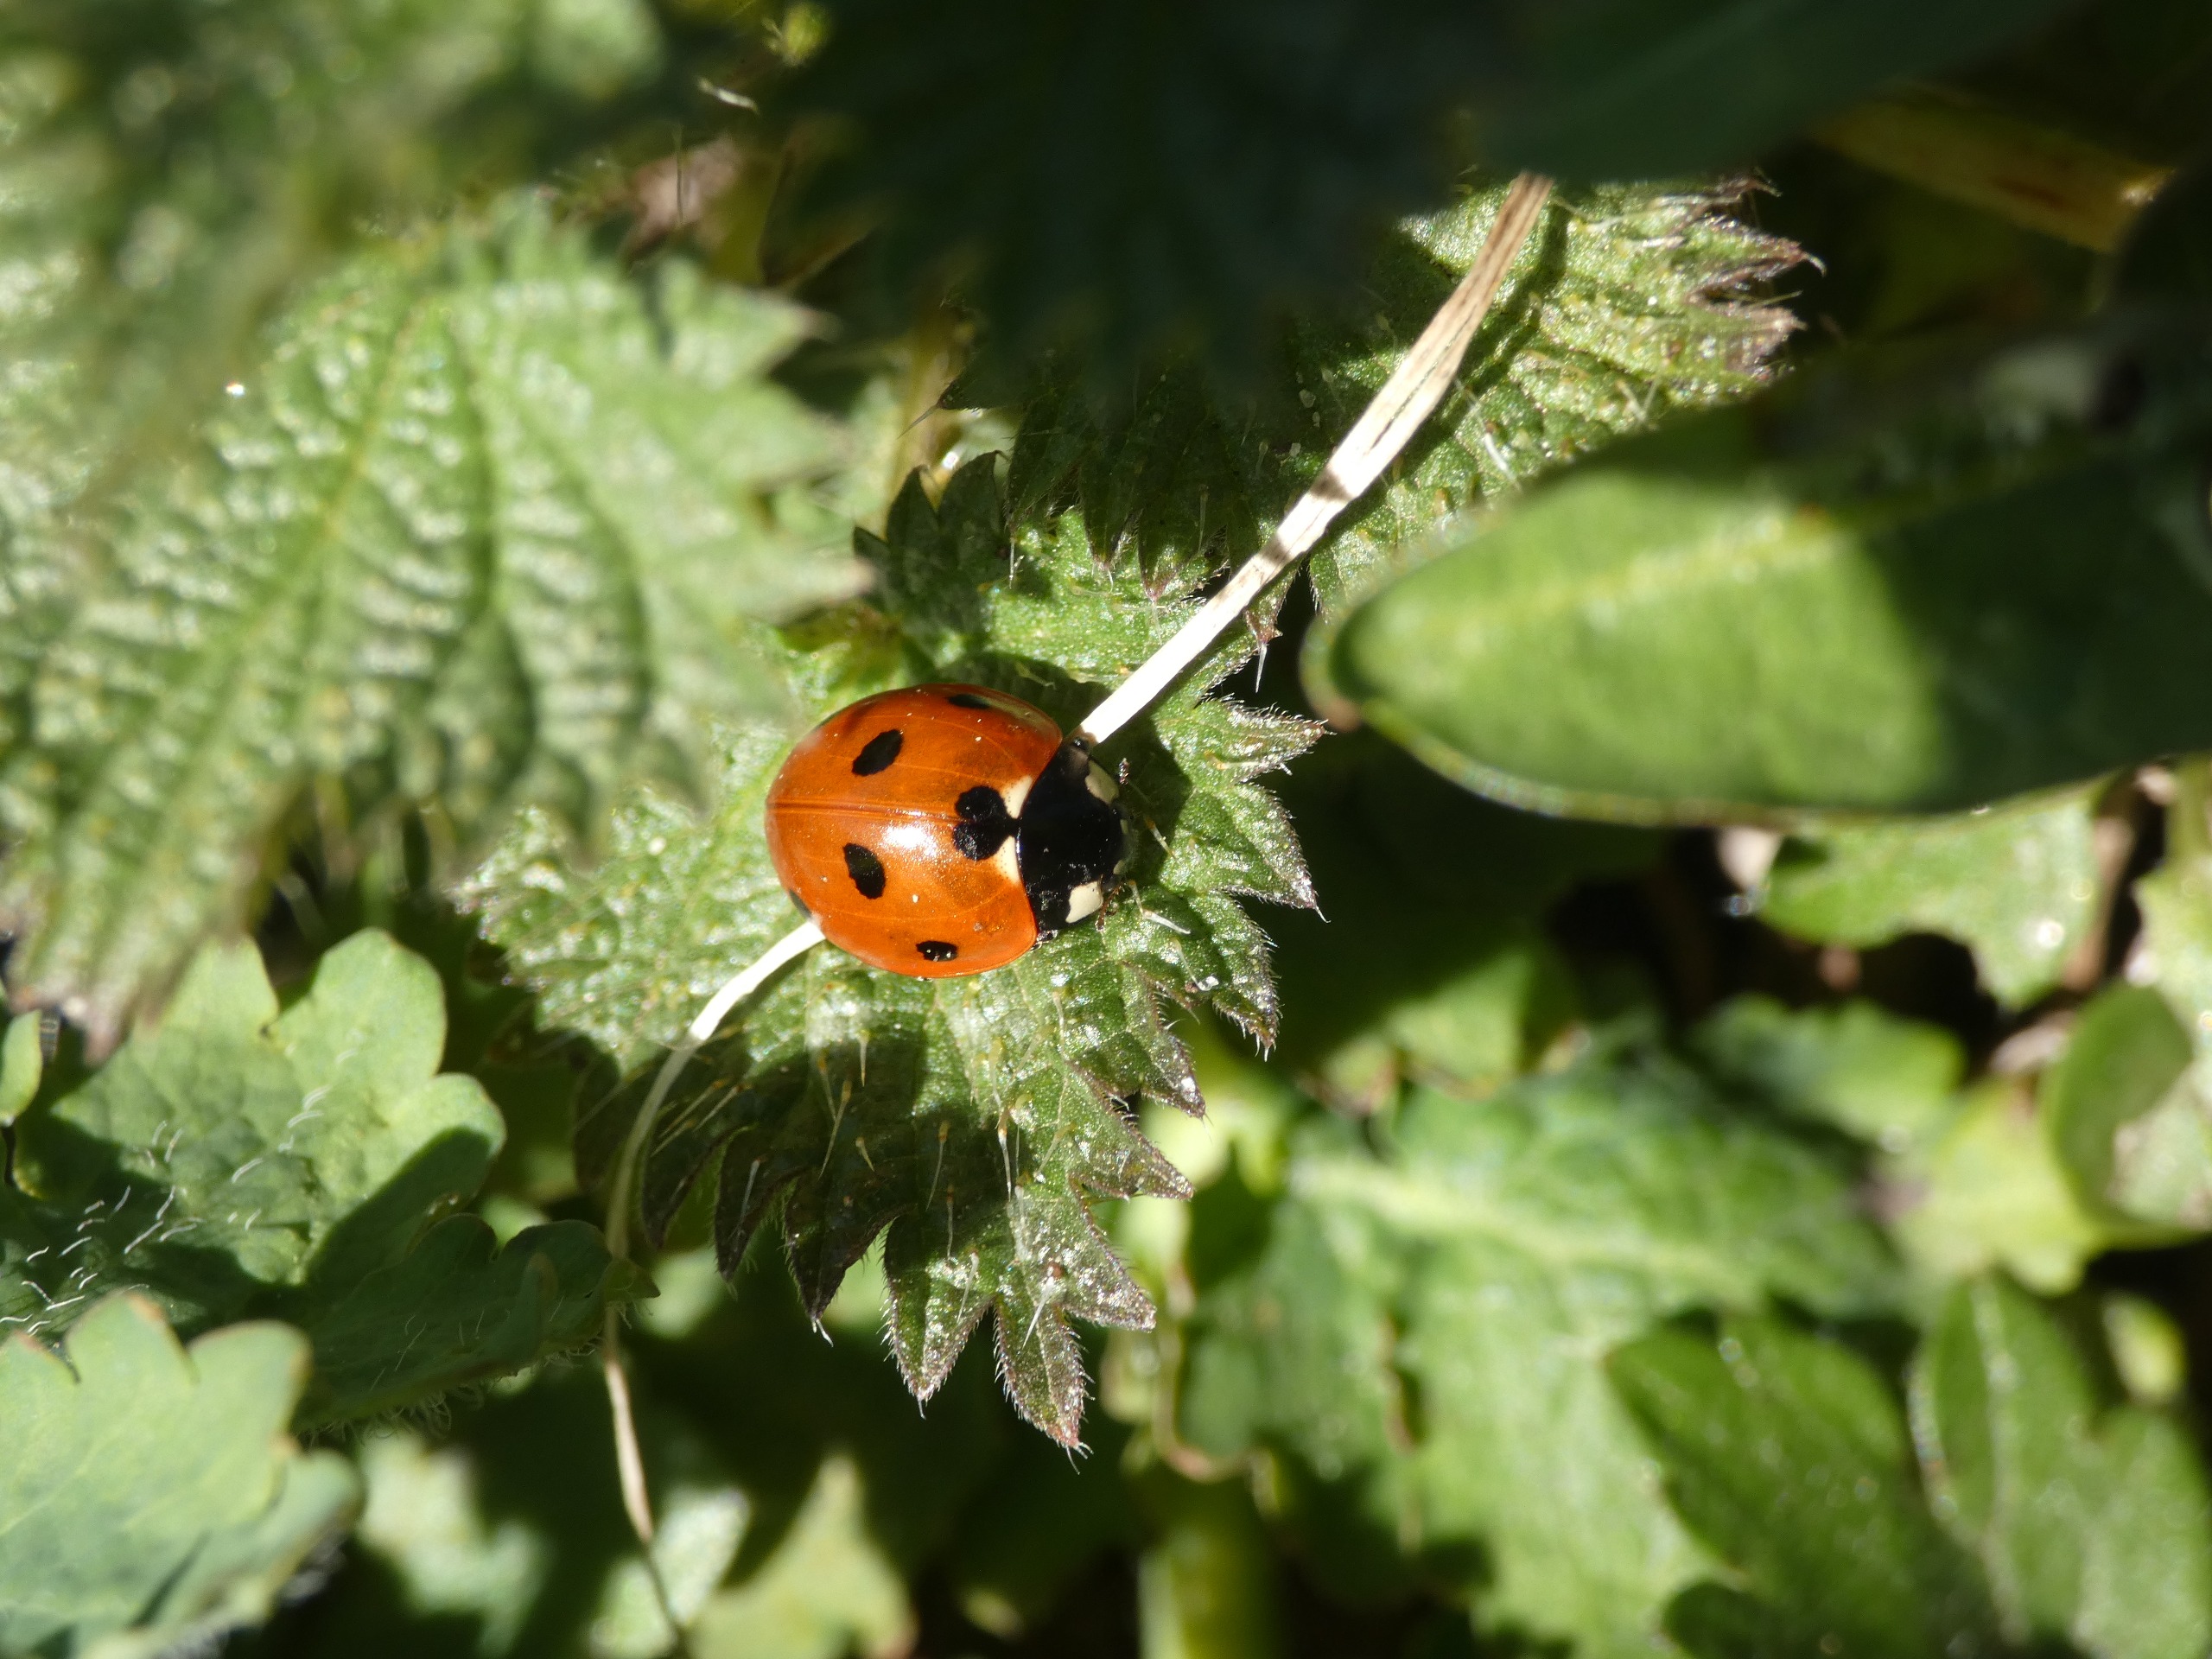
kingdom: Animalia
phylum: Arthropoda
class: Insecta
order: Coleoptera
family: Coccinellidae
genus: Coccinella
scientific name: Coccinella septempunctata
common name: Syvplettet mariehøne
